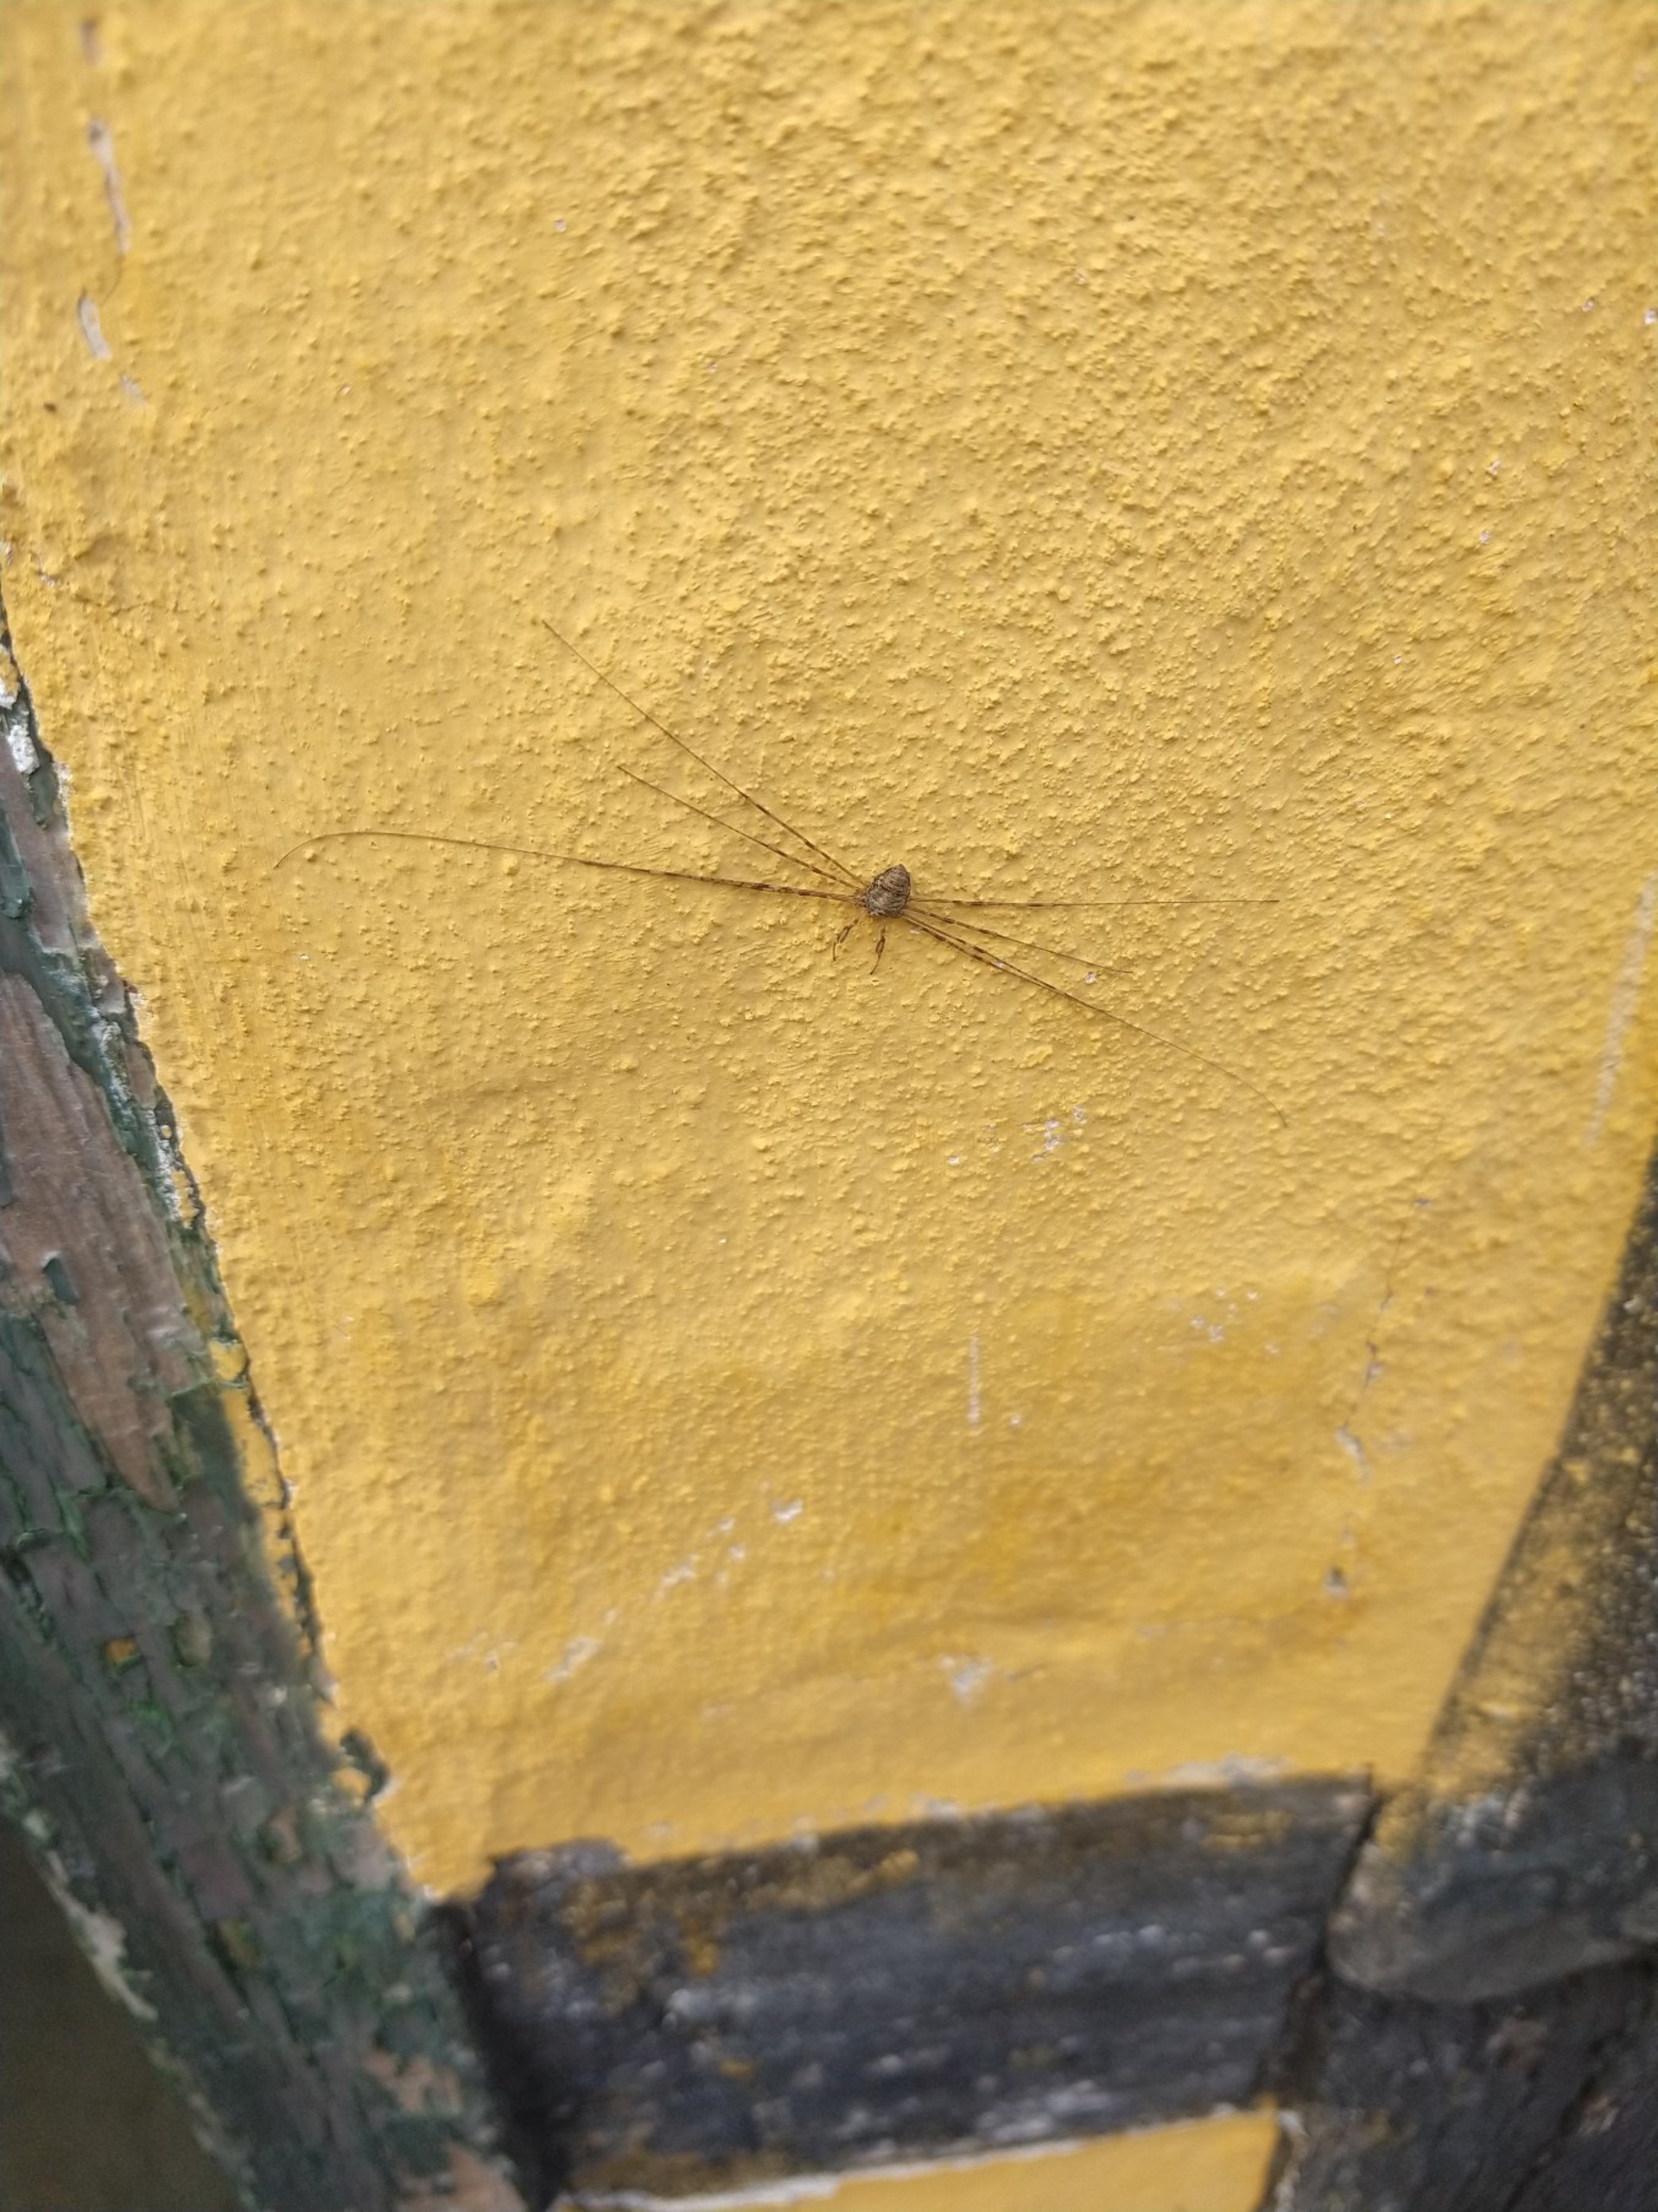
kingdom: Animalia
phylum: Arthropoda
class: Arachnida
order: Opiliones
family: Phalangiidae
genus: Dicranopalpus
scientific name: Dicranopalpus ramosus
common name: Gaffelmejer
